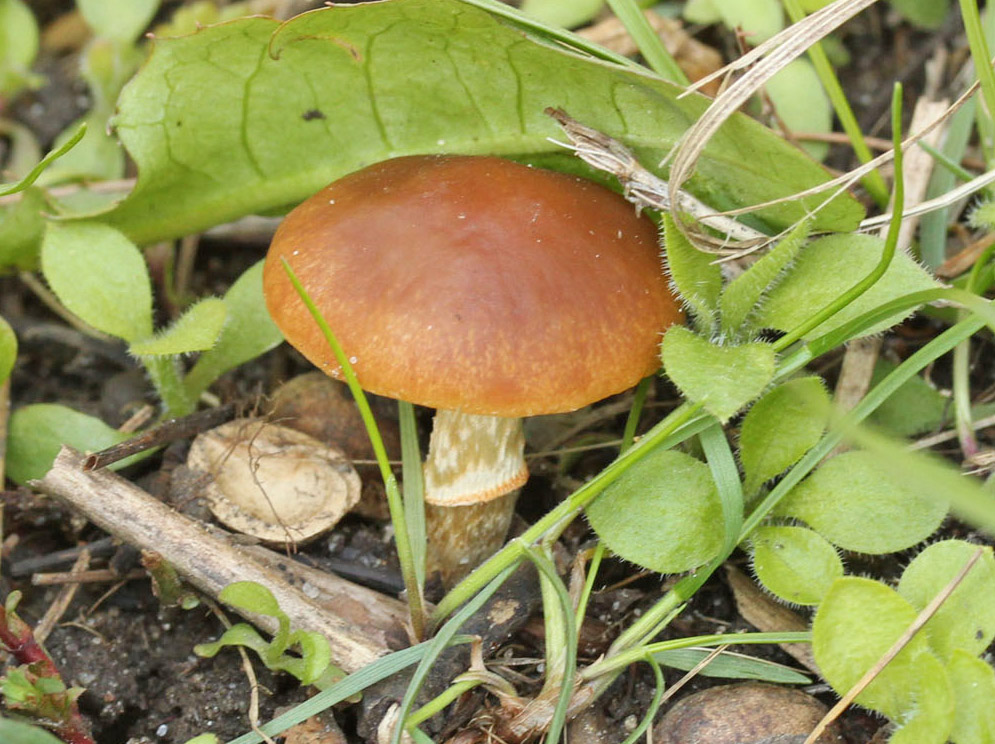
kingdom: Fungi
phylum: Basidiomycota
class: Agaricomycetes
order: Agaricales
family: Bolbitiaceae
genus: Conocybe
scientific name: Conocybe aporos
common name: tidlig dansehat
